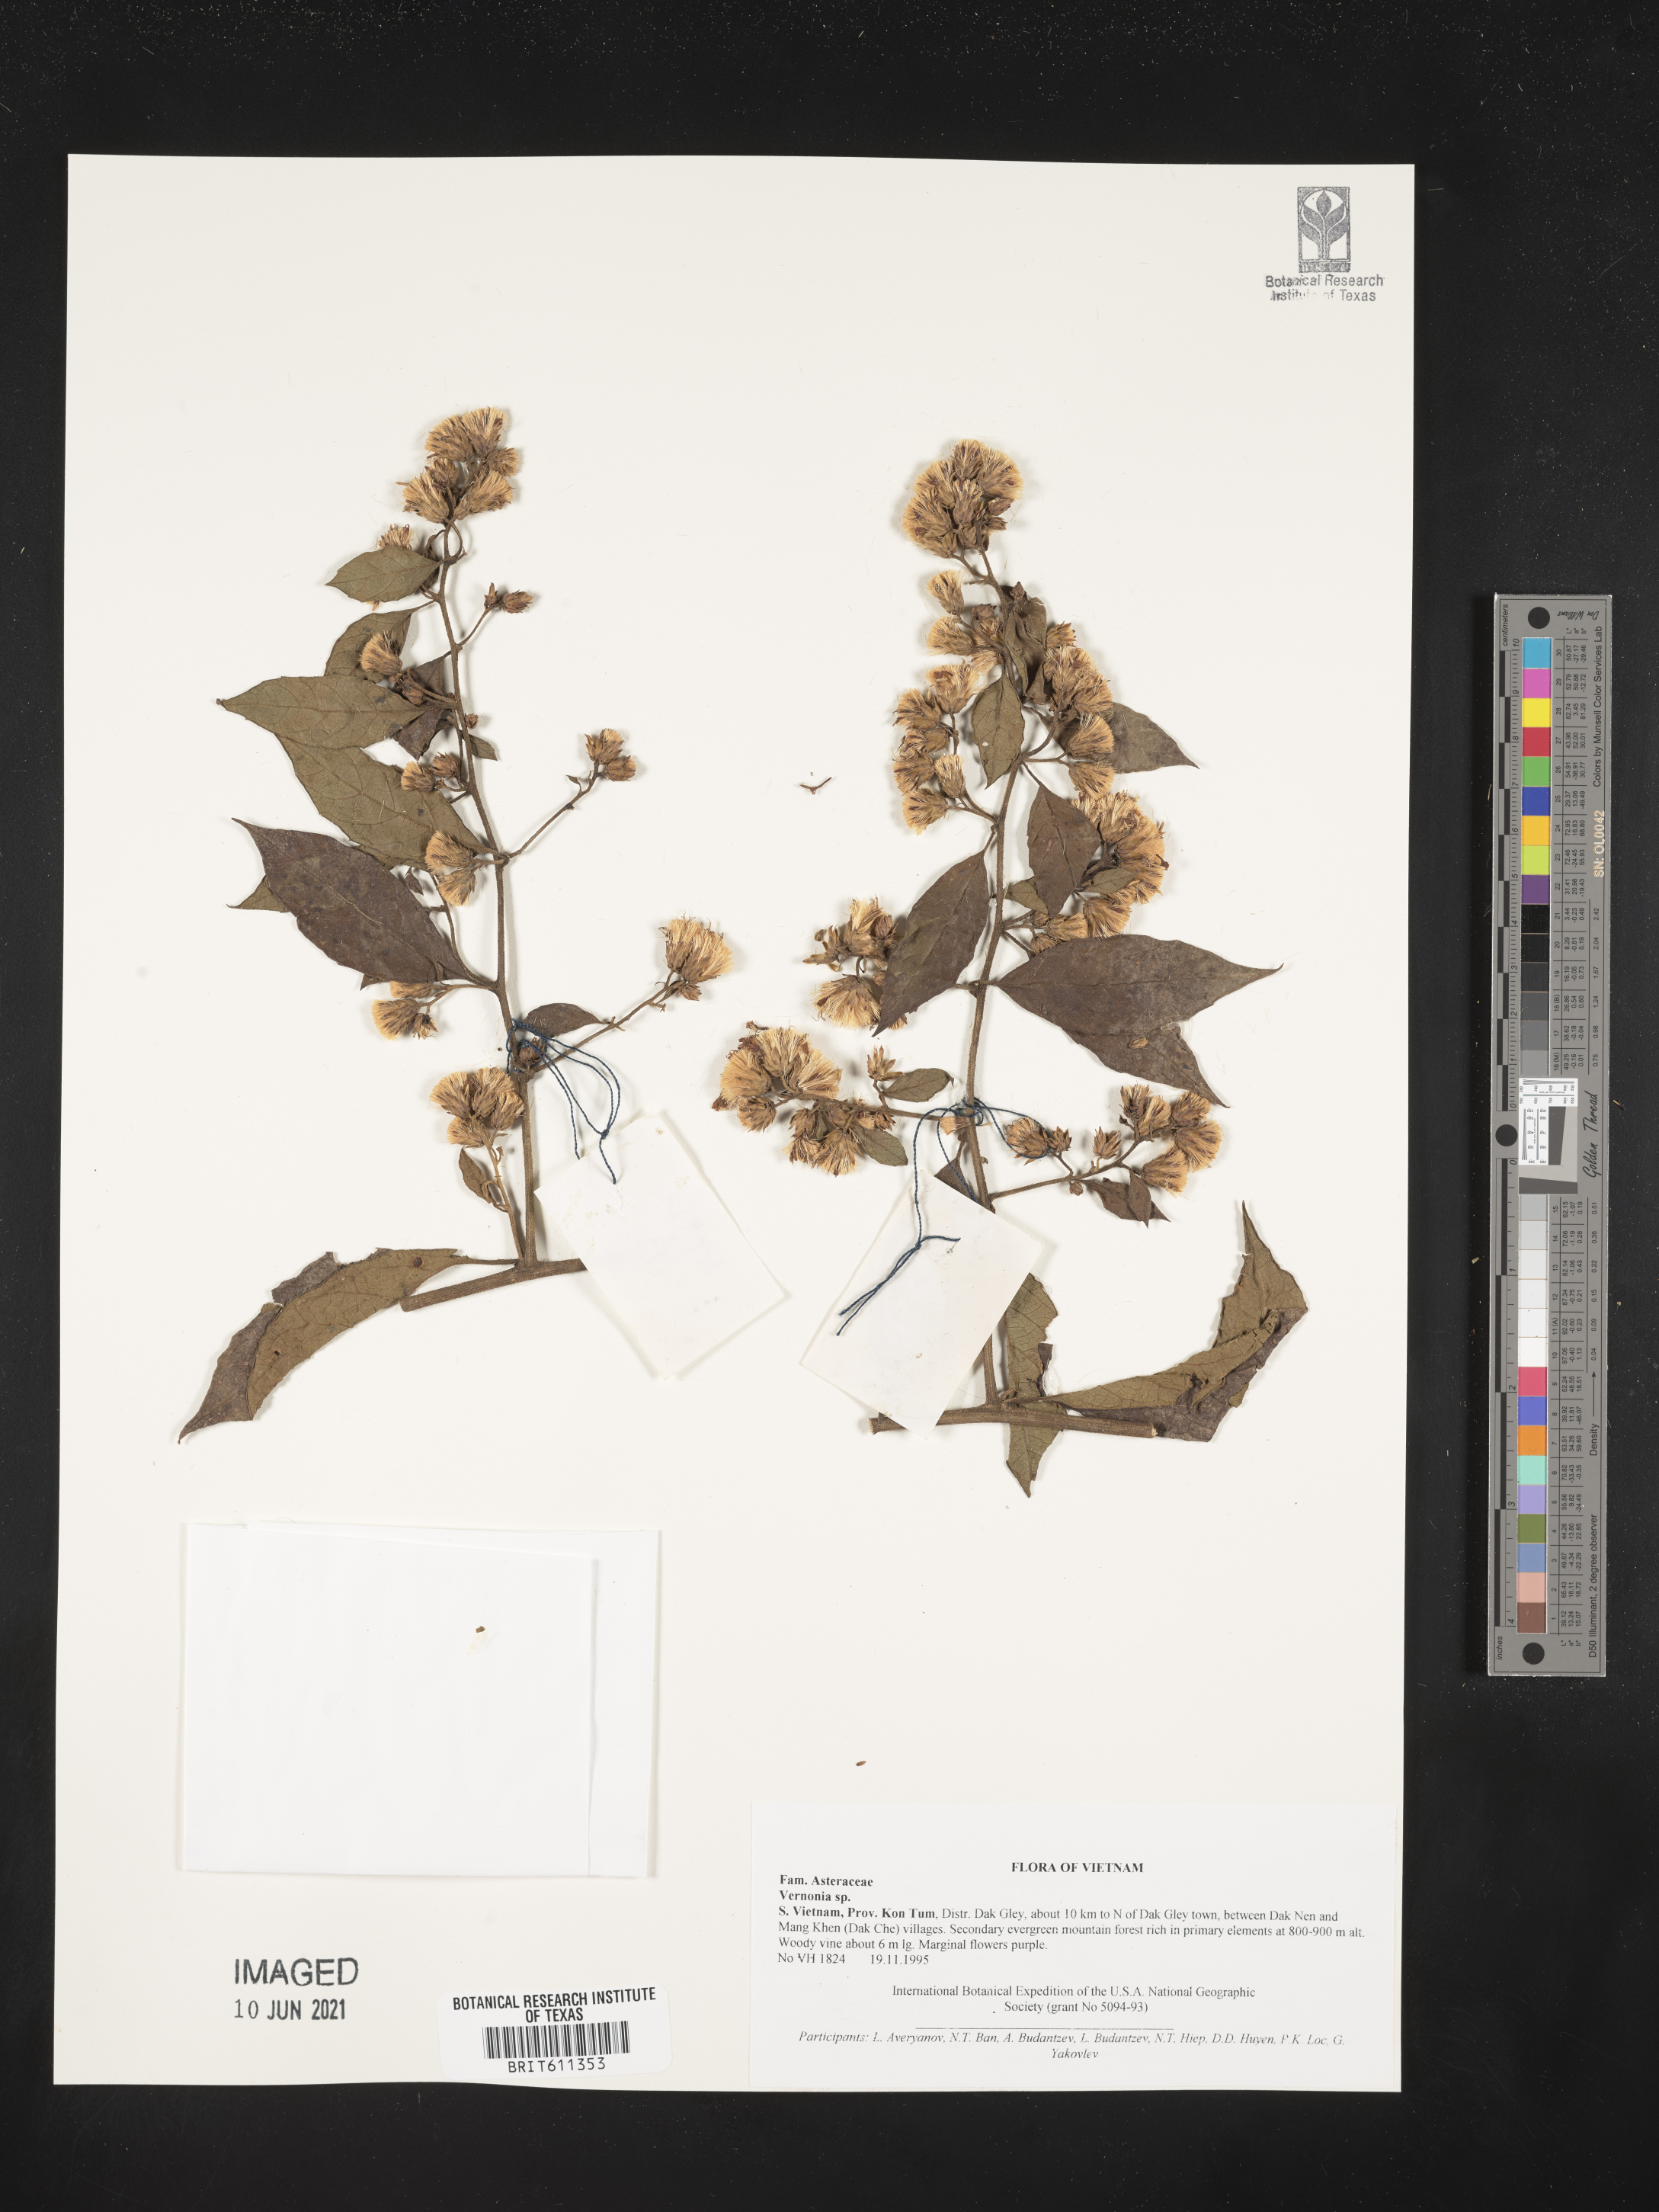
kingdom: Plantae
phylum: Tracheophyta
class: Magnoliopsida
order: Asterales
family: Asteraceae
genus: Vernonia
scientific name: Vernonia
